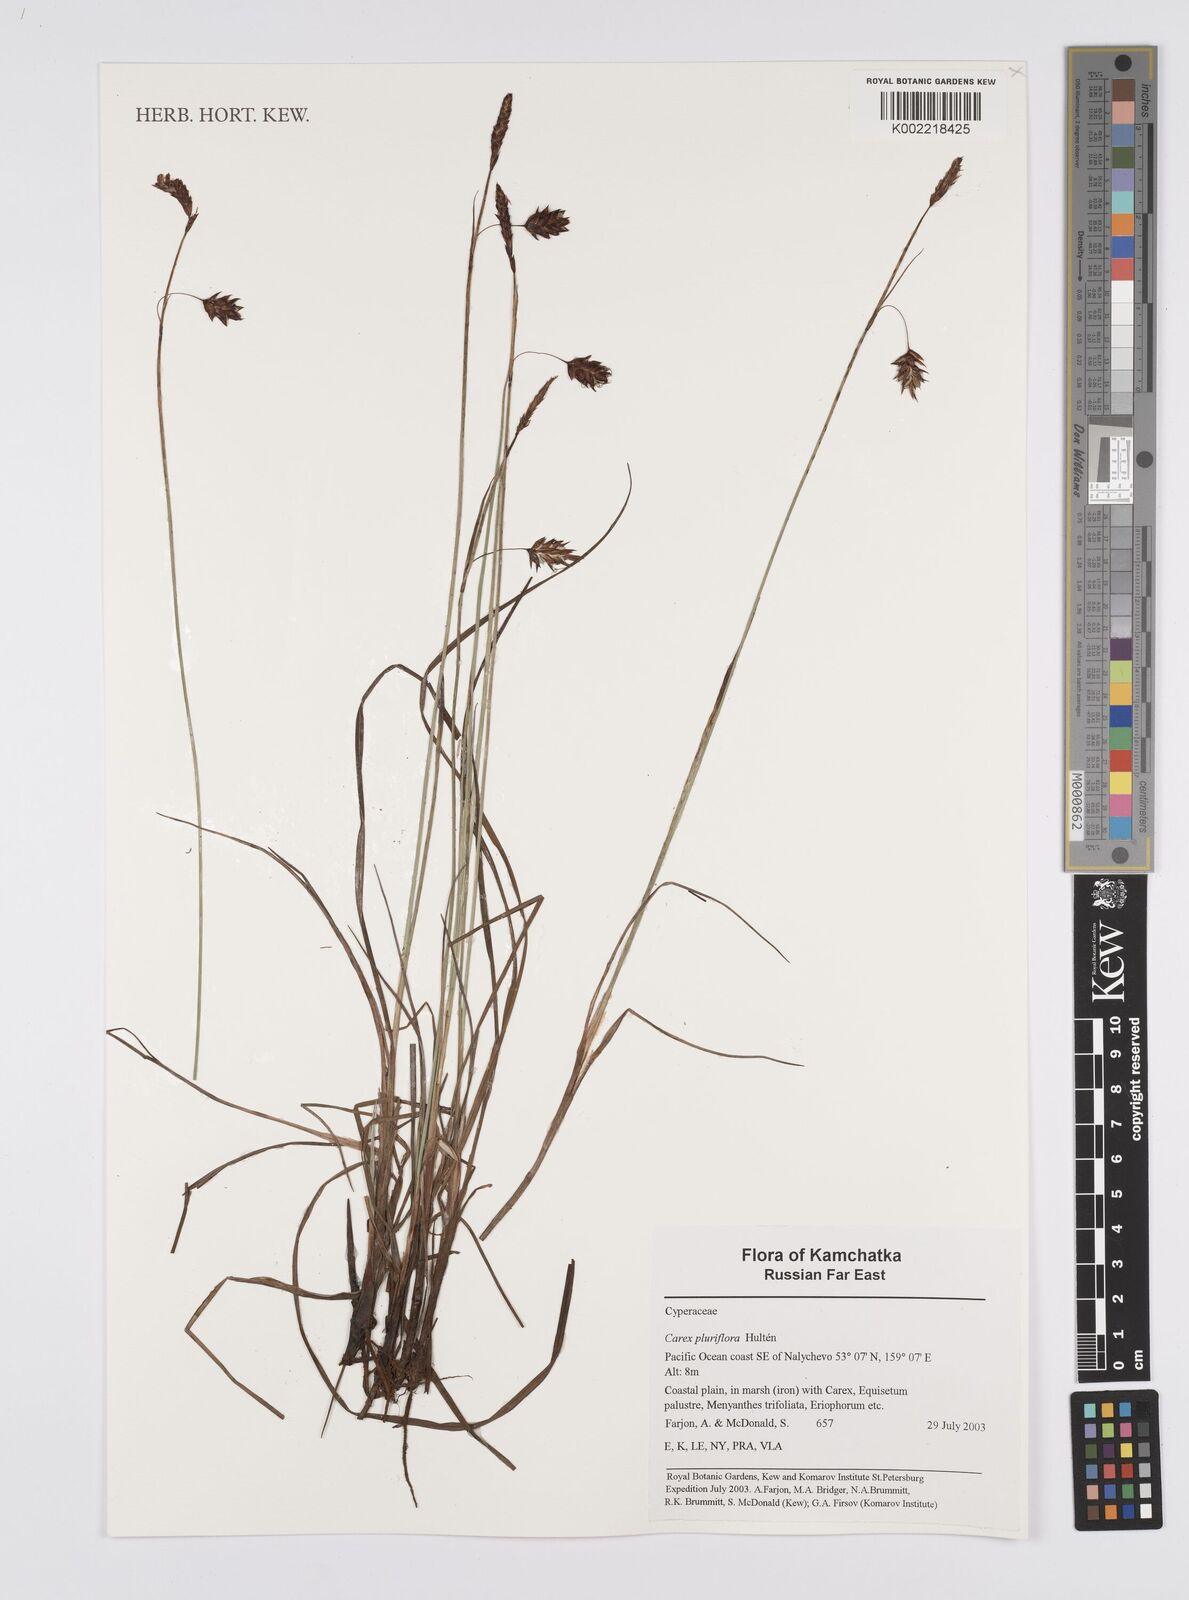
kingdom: Plantae
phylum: Tracheophyta
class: Liliopsida
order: Poales
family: Cyperaceae
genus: Carex
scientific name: Carex melanocarpa
